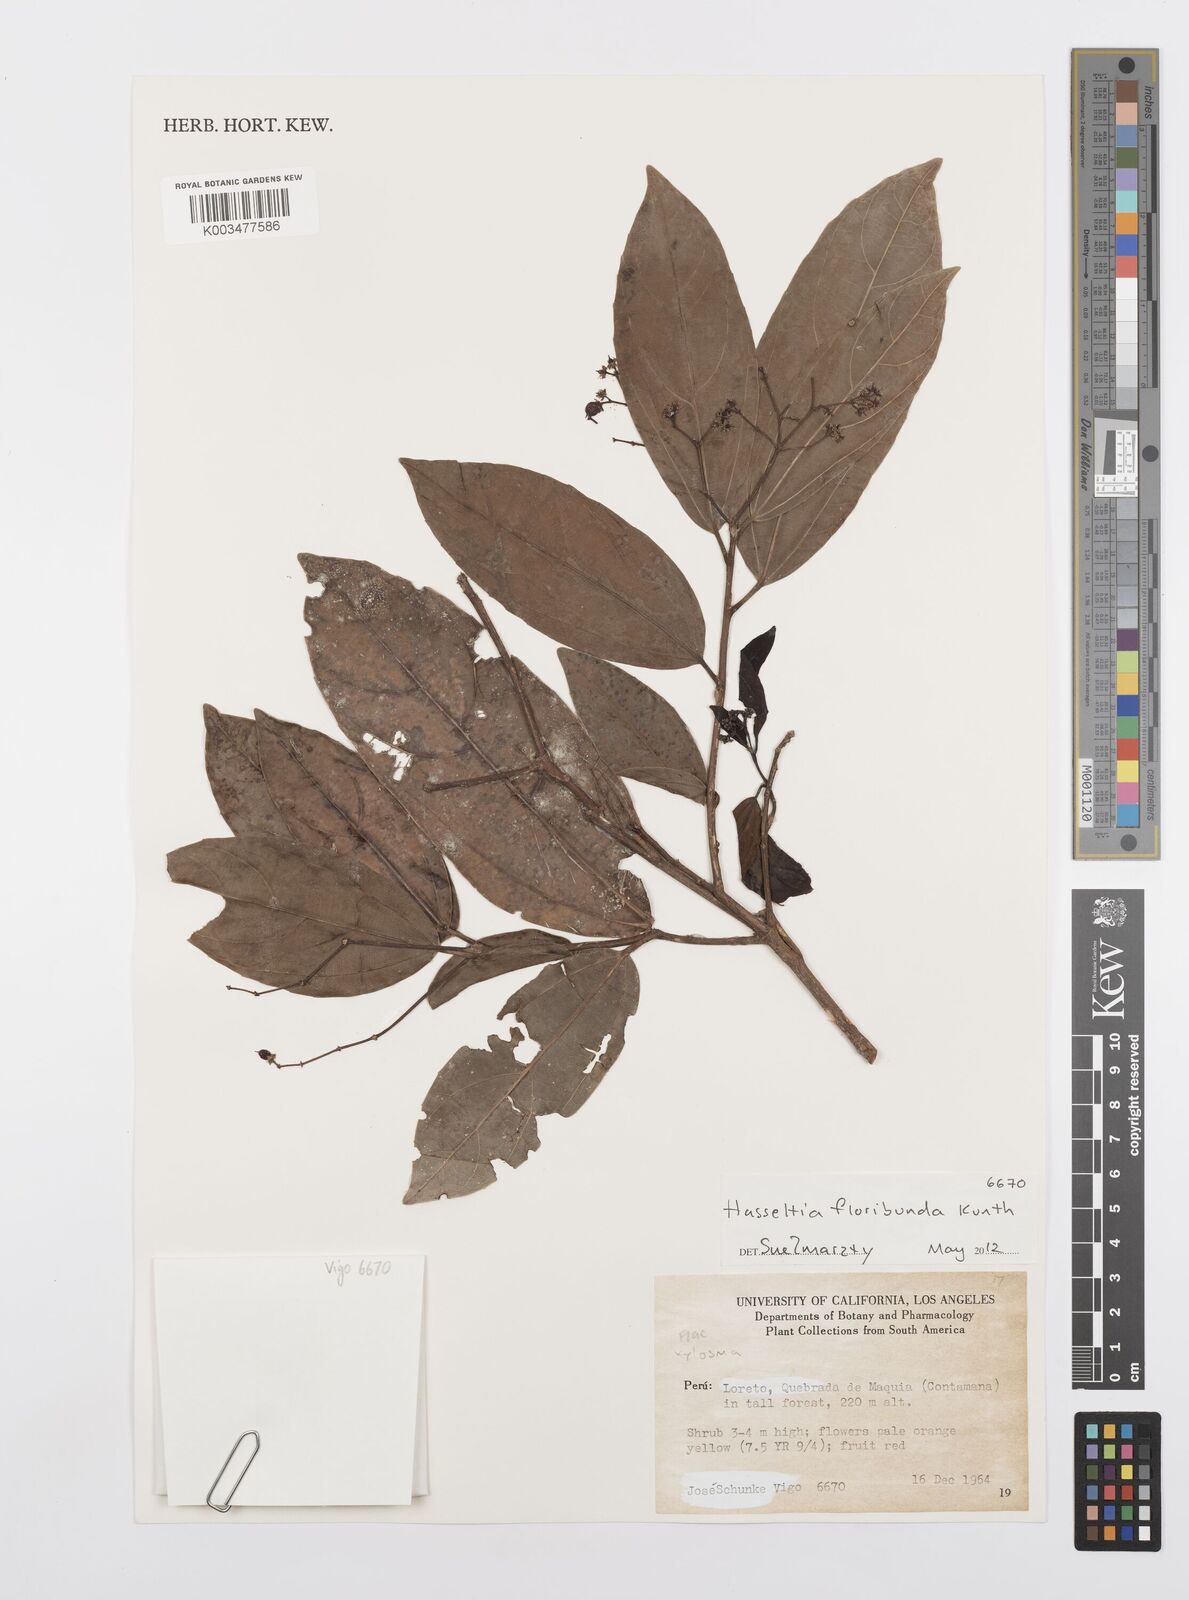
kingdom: Plantae
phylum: Tracheophyta
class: Magnoliopsida
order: Malpighiales
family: Salicaceae
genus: Hasseltia
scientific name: Hasseltia floribunda
